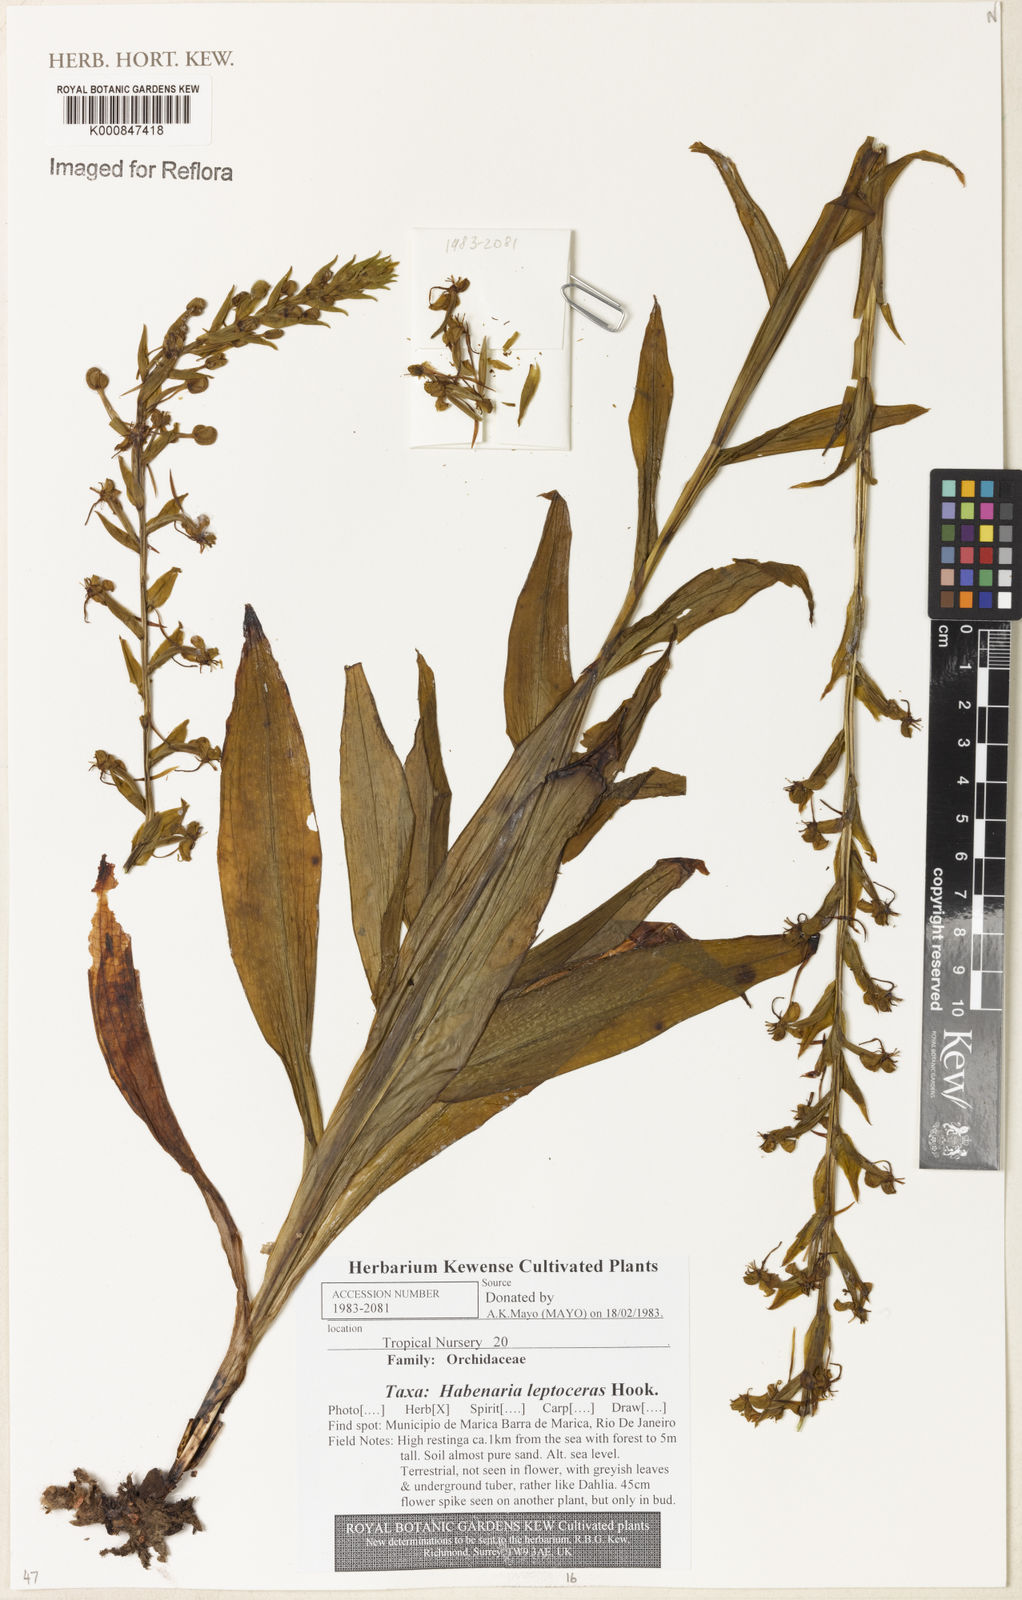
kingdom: Plantae
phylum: Tracheophyta
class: Liliopsida
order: Asparagales
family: Orchidaceae
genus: Habenaria
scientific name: Habenaria leptoceras
